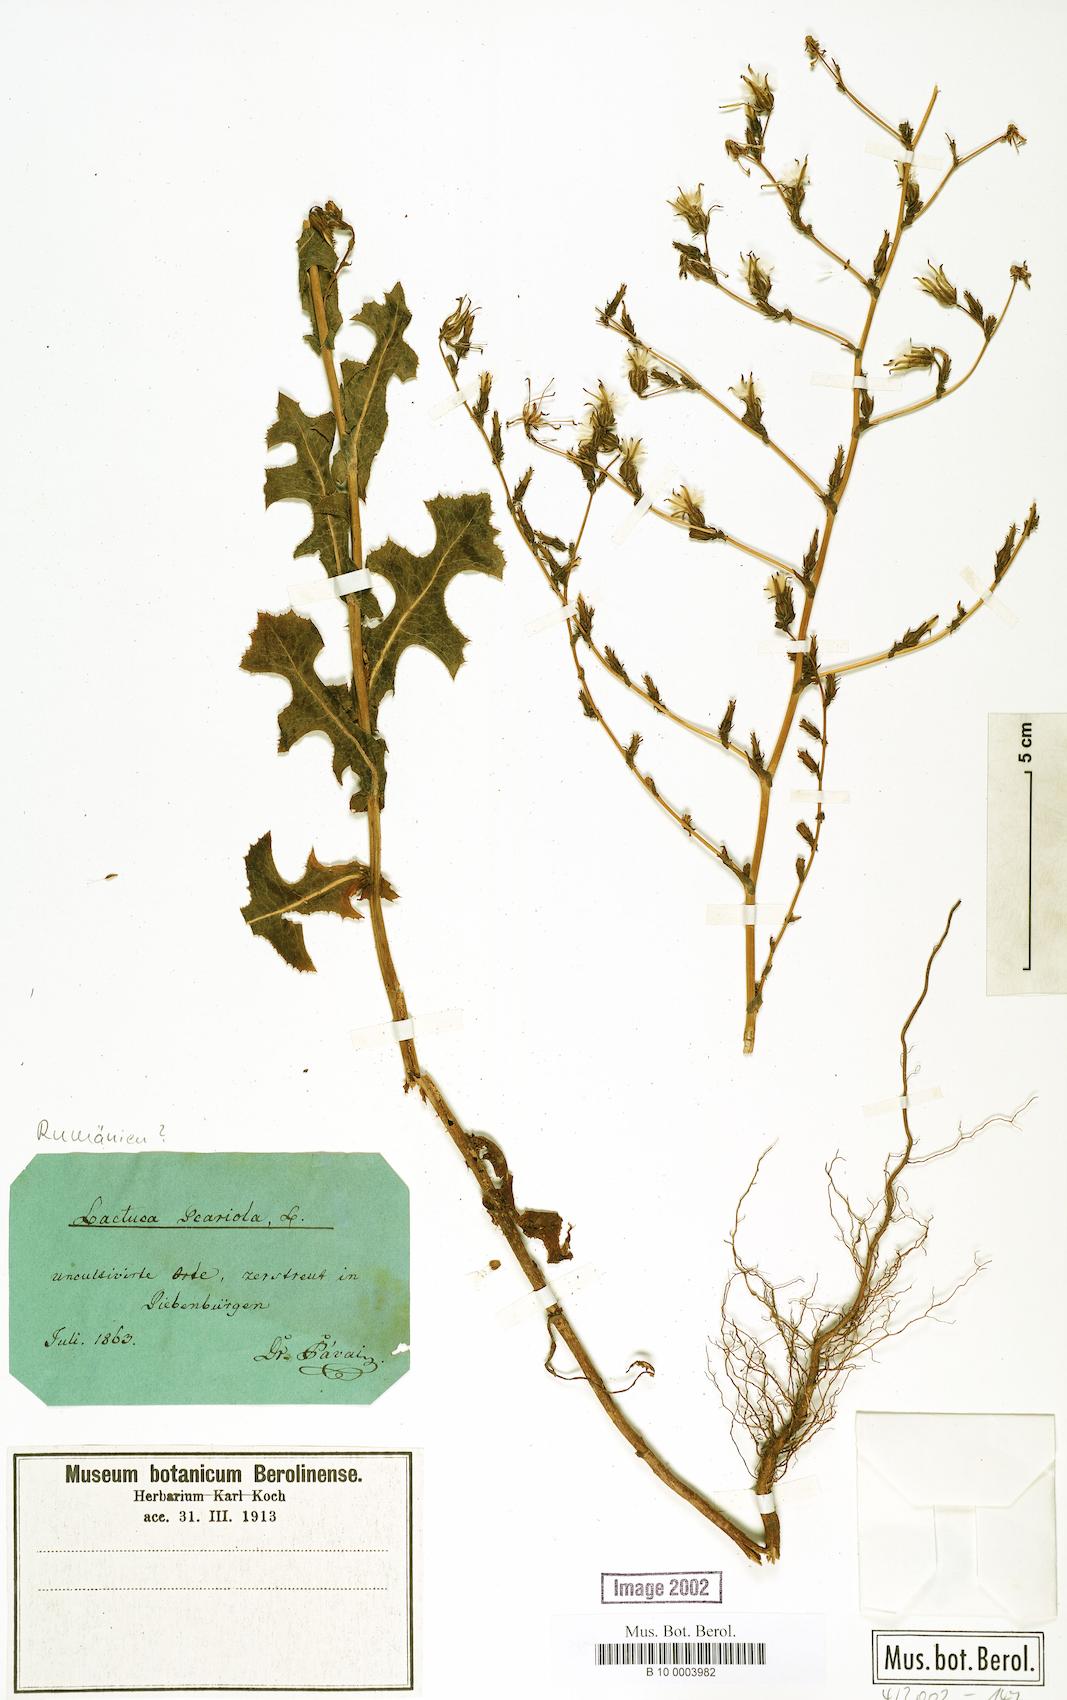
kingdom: Plantae
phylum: Tracheophyta
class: Magnoliopsida
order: Asterales
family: Asteraceae
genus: Lactuca
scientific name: Lactuca serriola
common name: Prickly lettuce
